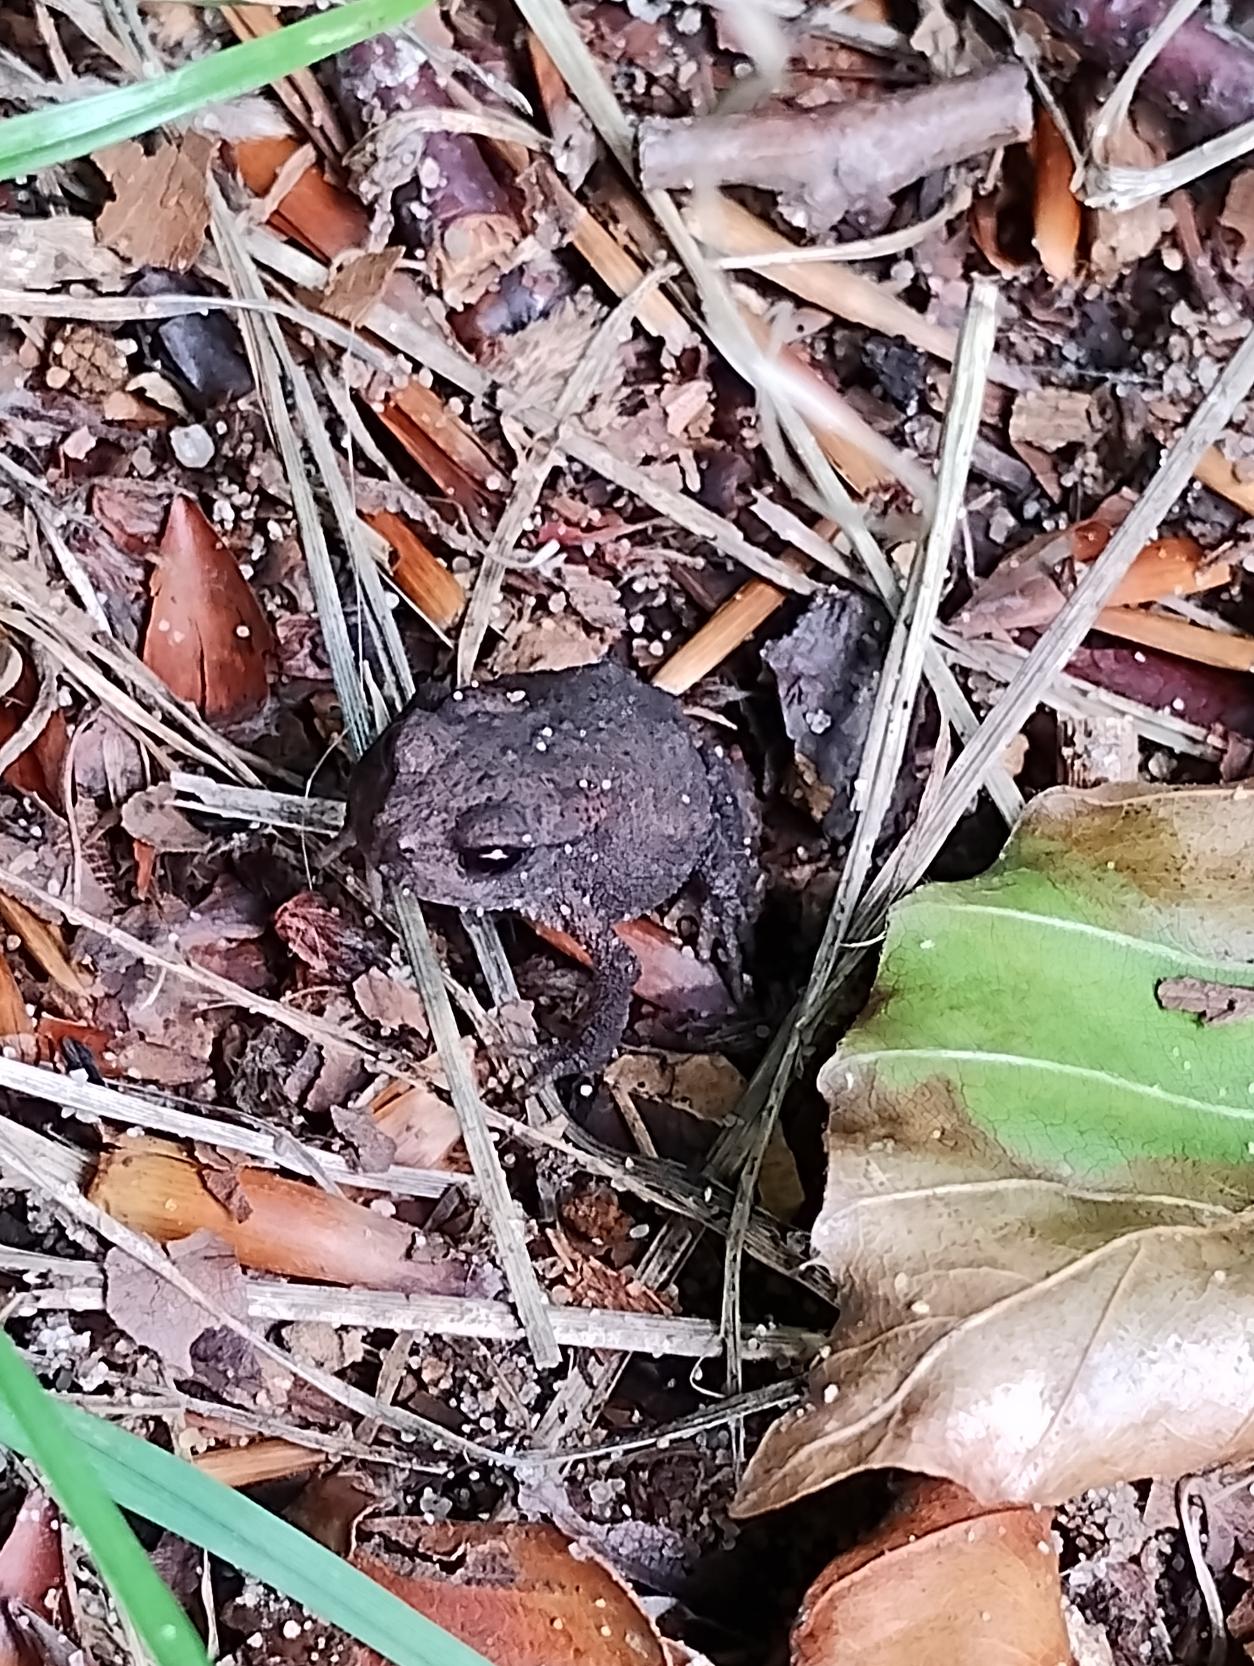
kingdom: Animalia
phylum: Chordata
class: Amphibia
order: Anura
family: Bufonidae
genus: Bufo
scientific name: Bufo bufo
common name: Skrubtudse
